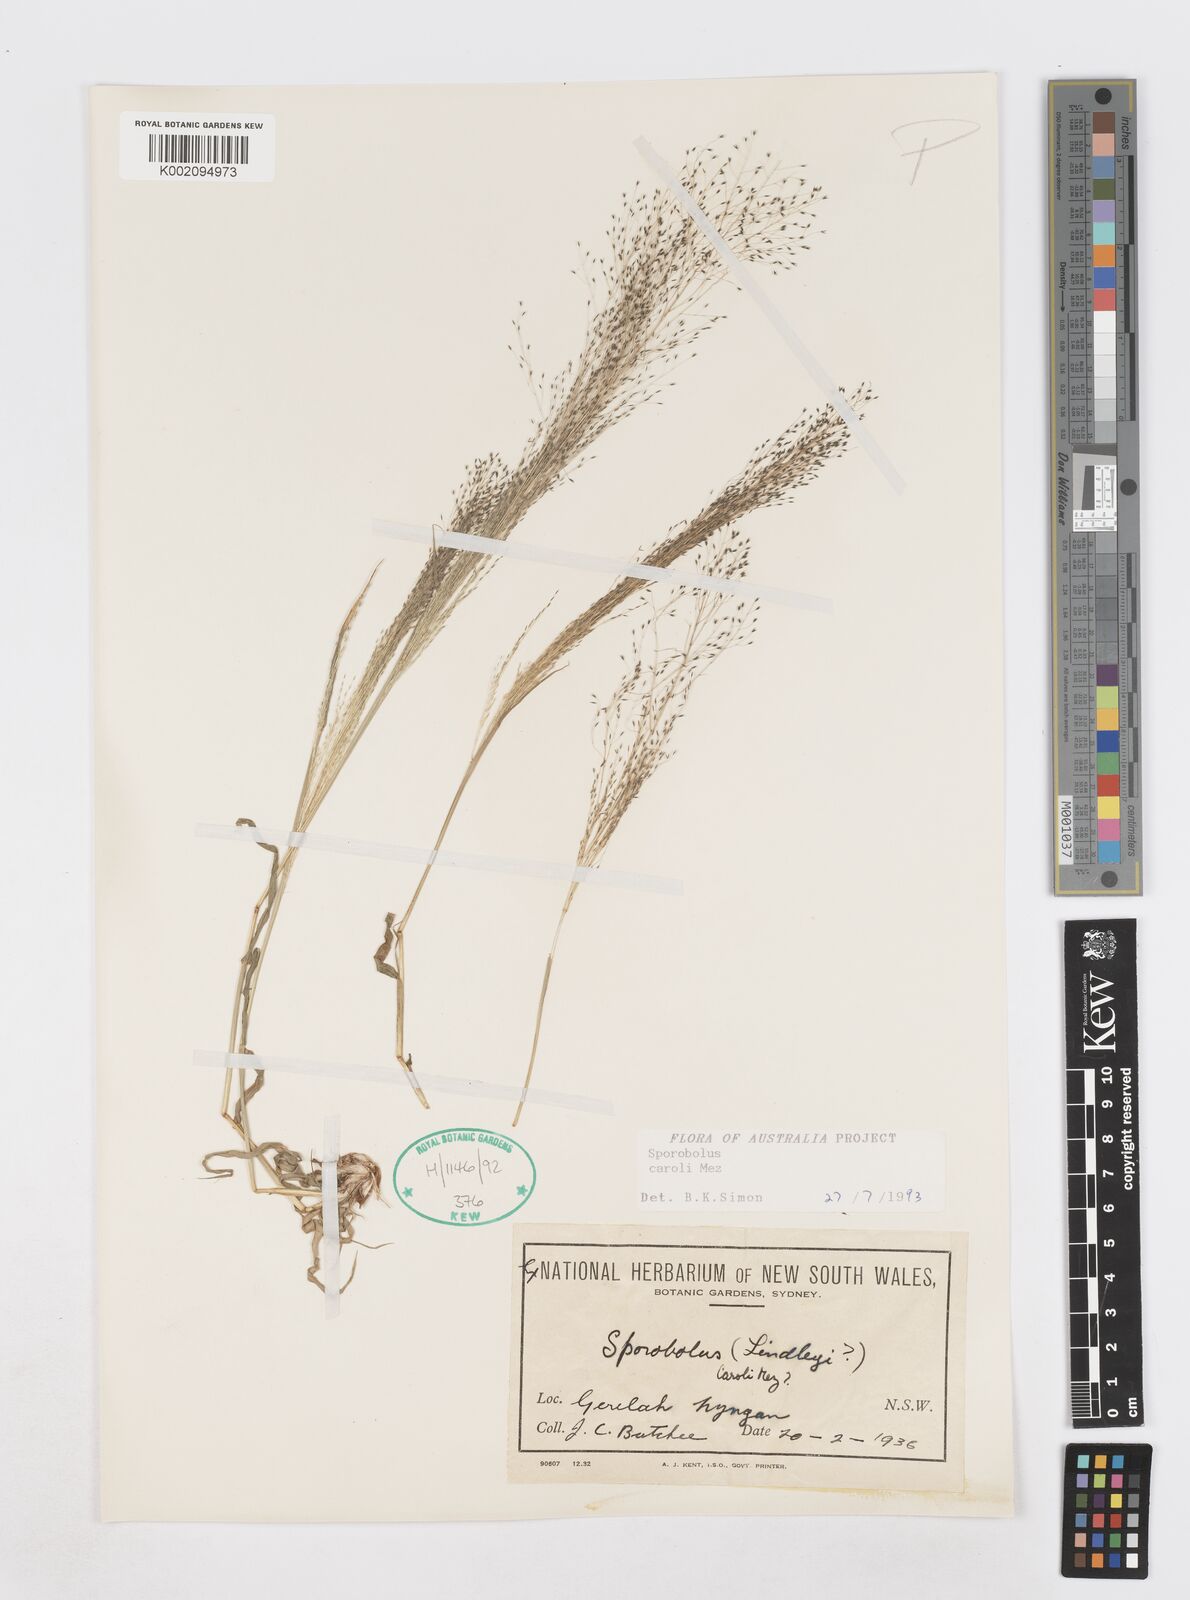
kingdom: Plantae
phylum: Tracheophyta
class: Liliopsida
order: Poales
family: Poaceae
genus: Sporobolus
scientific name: Sporobolus caroli
